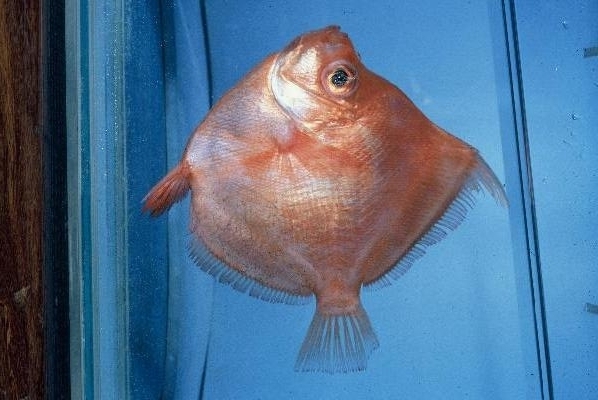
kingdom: Animalia
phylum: Chordata
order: Perciformes
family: Caproidae
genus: Antigonia
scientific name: Antigonia capros
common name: Deepbody boarfish
